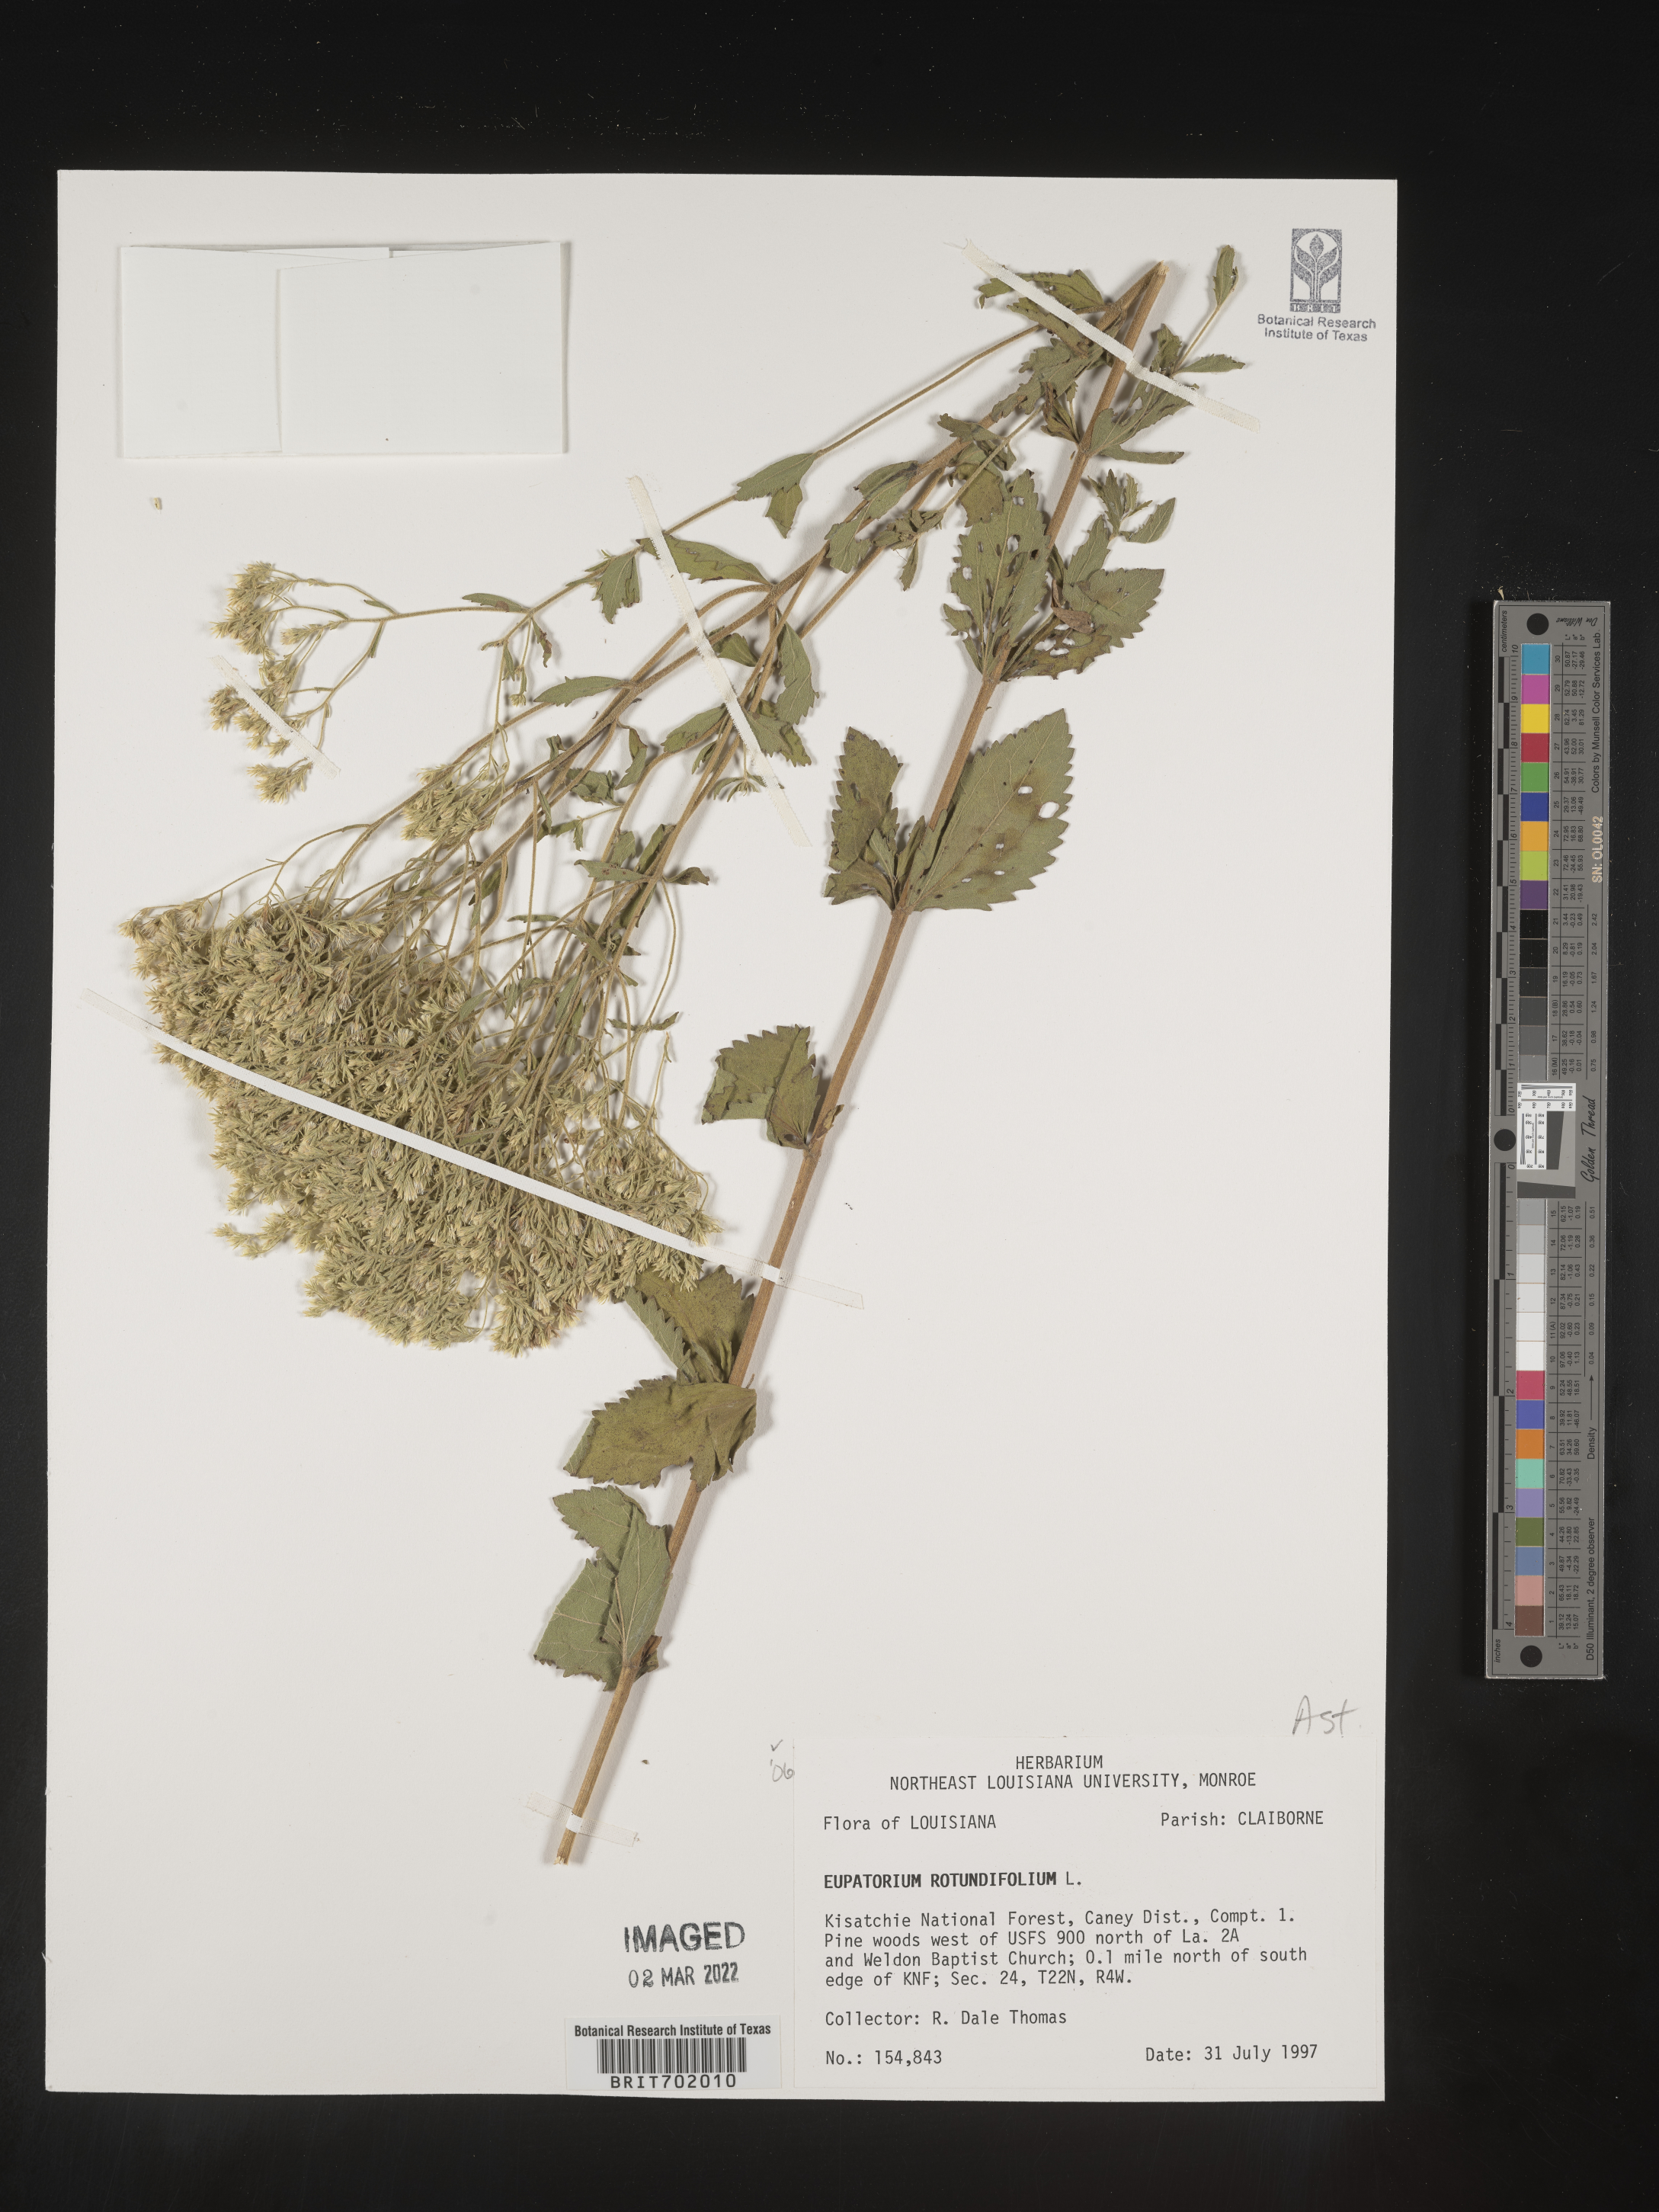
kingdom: Plantae
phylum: Tracheophyta
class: Magnoliopsida
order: Asterales
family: Asteraceae
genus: Eupatorium
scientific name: Eupatorium rotundifolium
